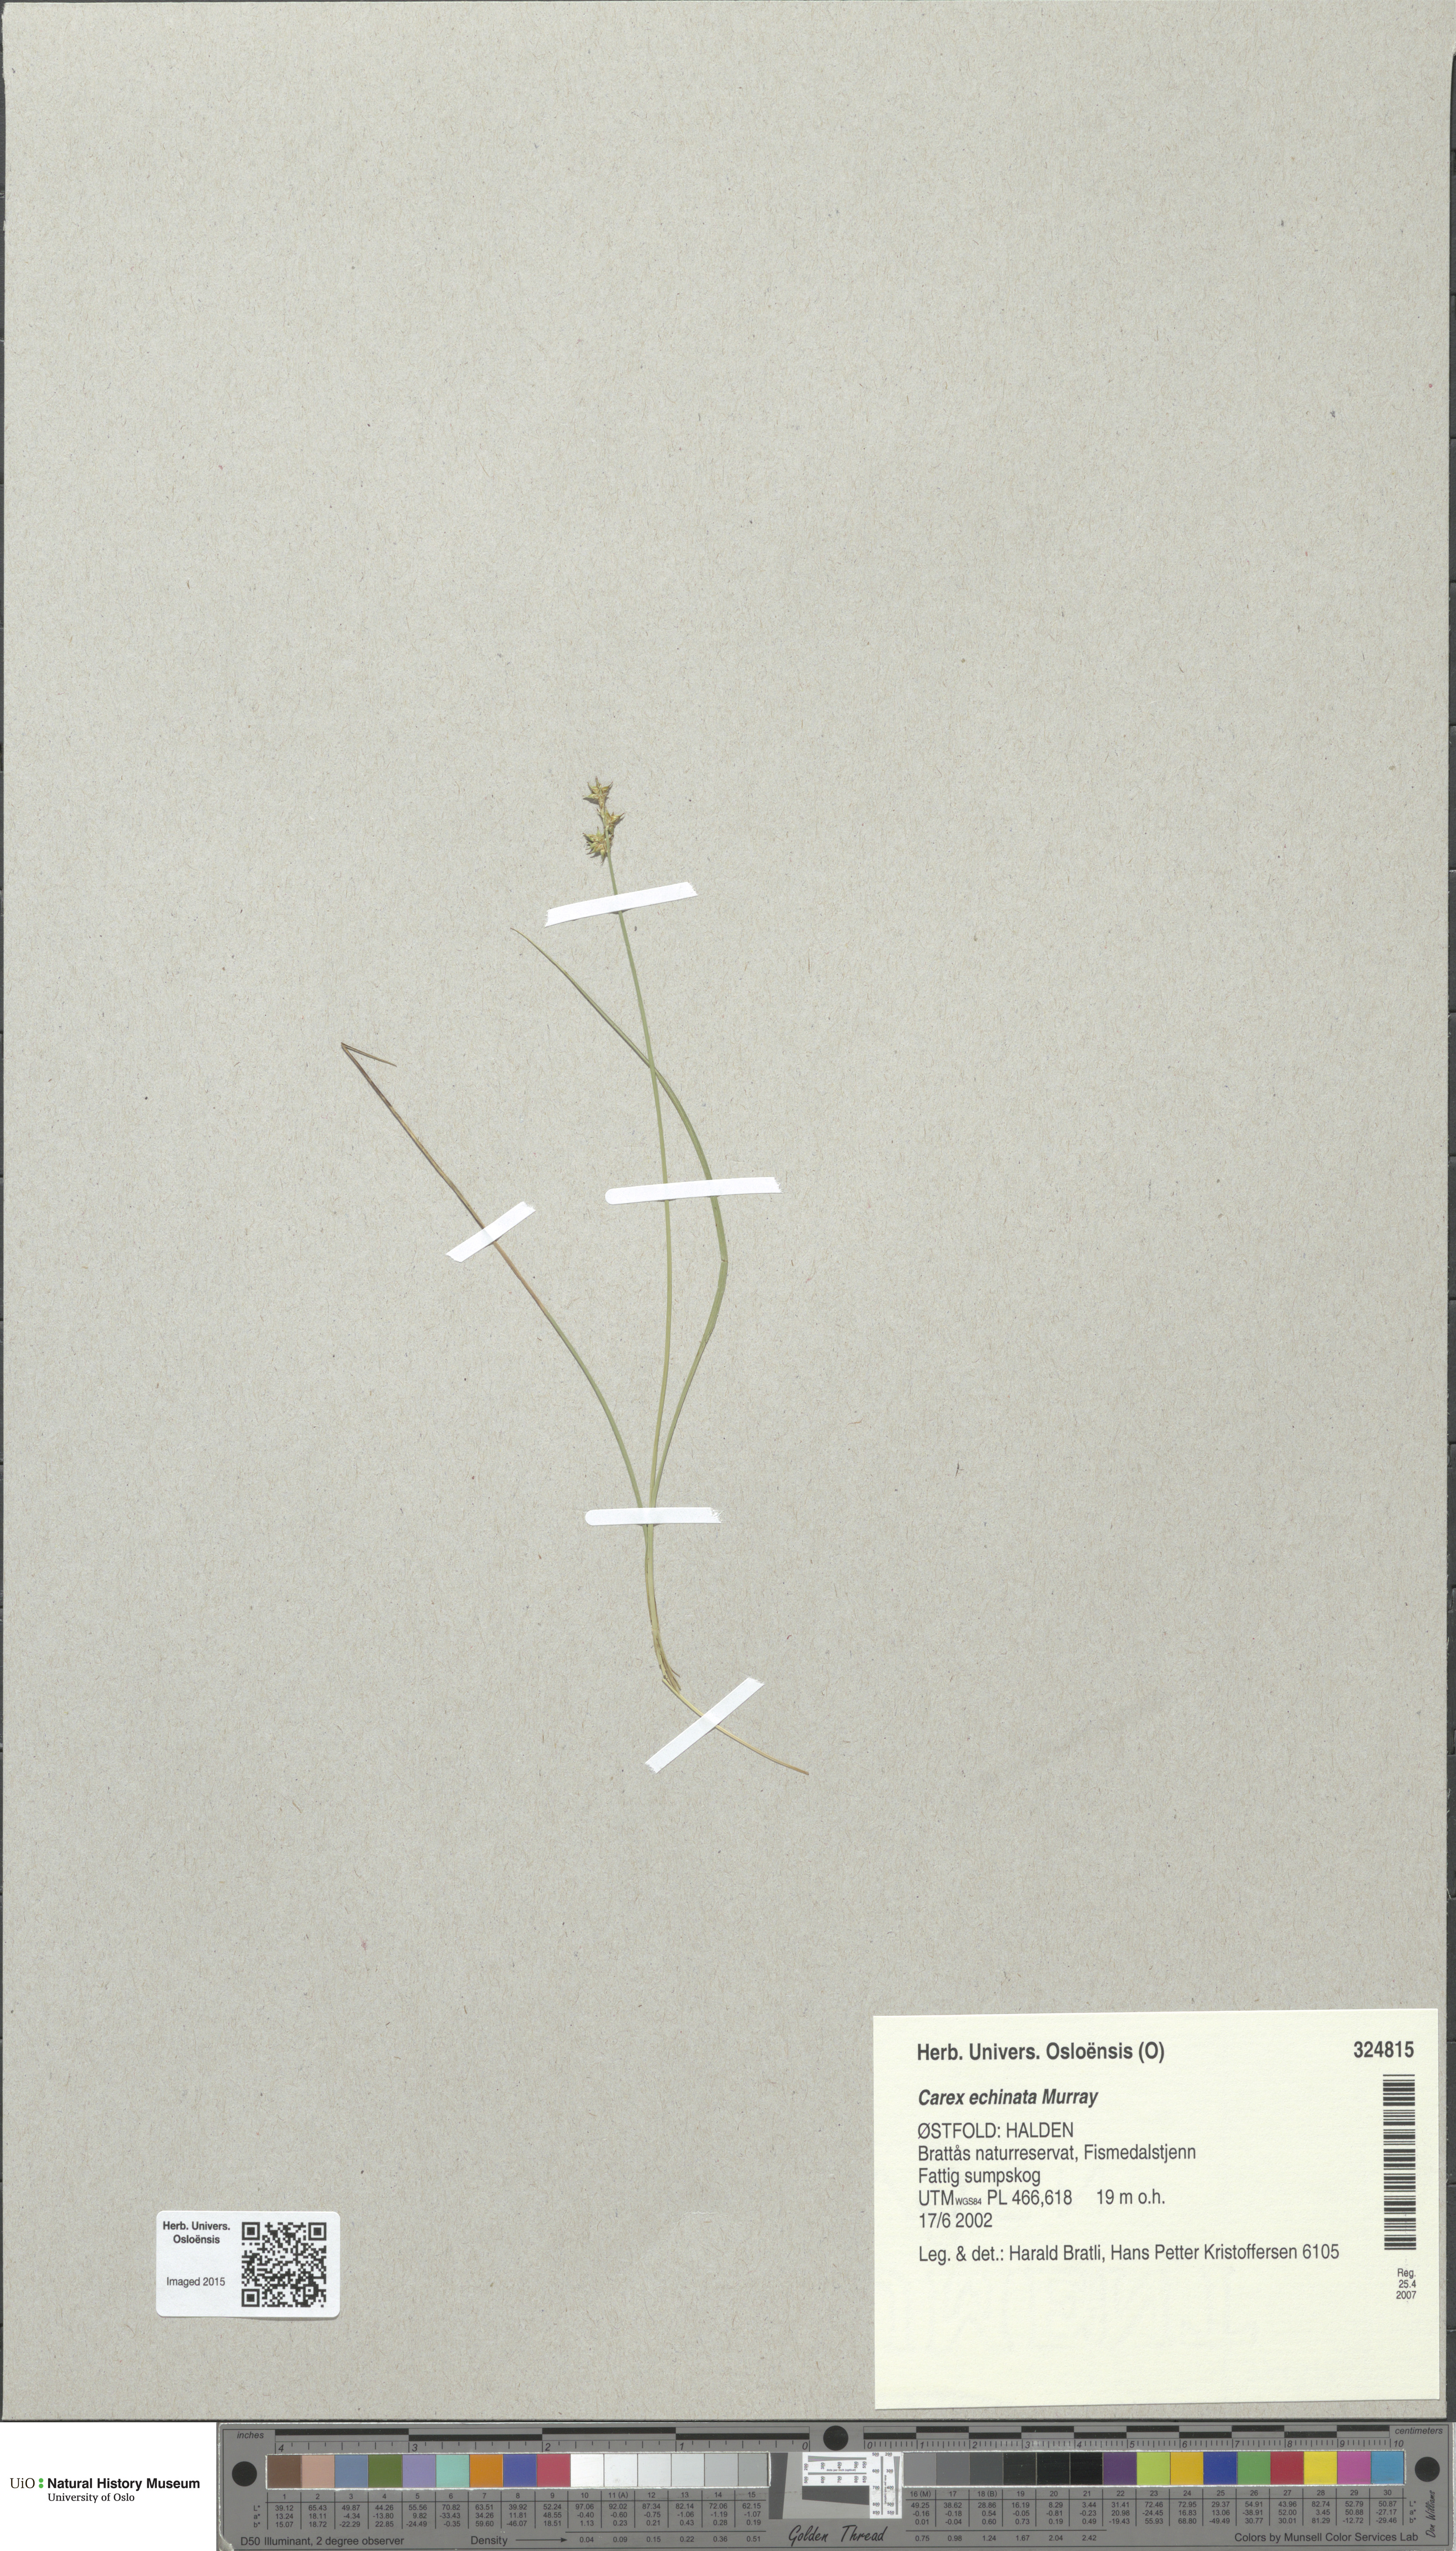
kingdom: Plantae
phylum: Tracheophyta
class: Liliopsida
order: Poales
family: Cyperaceae
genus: Carex
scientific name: Carex echinata
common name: Star sedge
